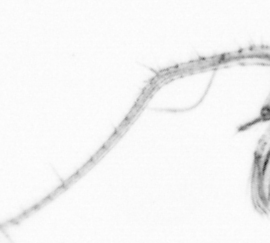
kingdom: Animalia
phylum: Arthropoda
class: Copepoda
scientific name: Copepoda
